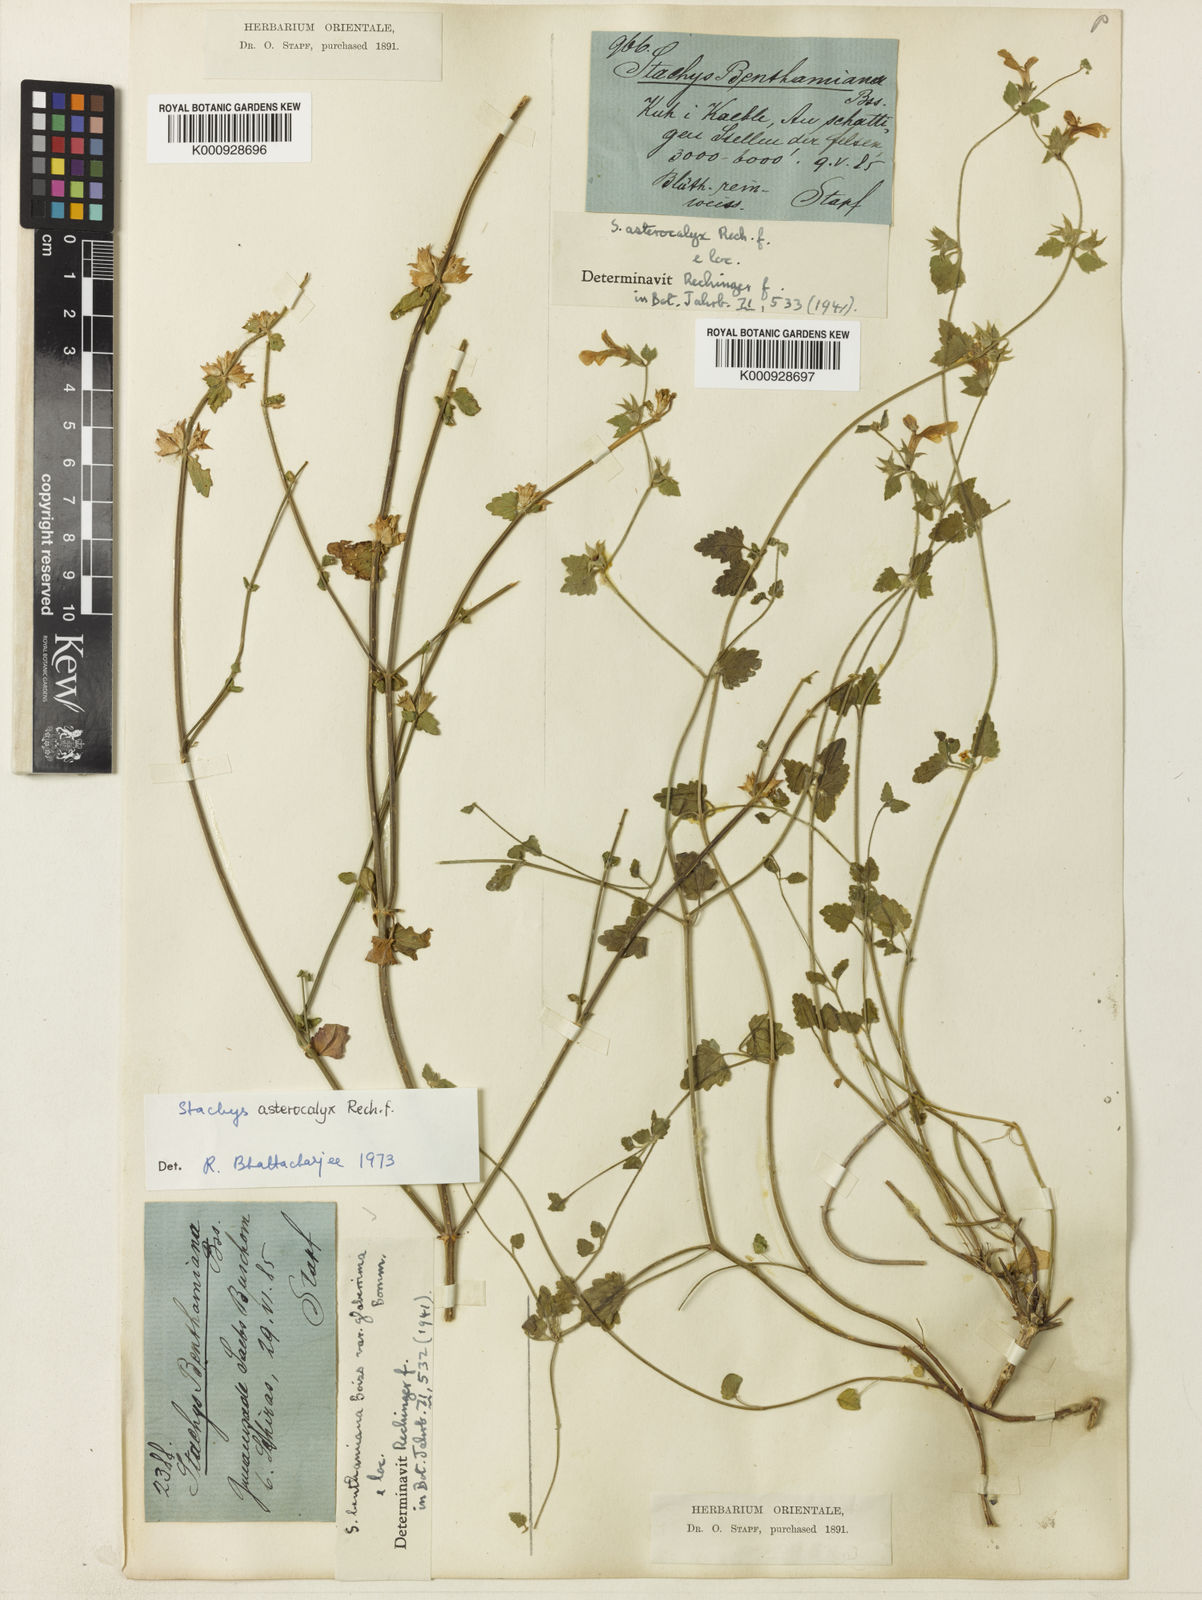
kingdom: Plantae
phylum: Tracheophyta
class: Magnoliopsida
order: Lamiales
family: Lamiaceae
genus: Stachys
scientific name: Stachys benthamiana
